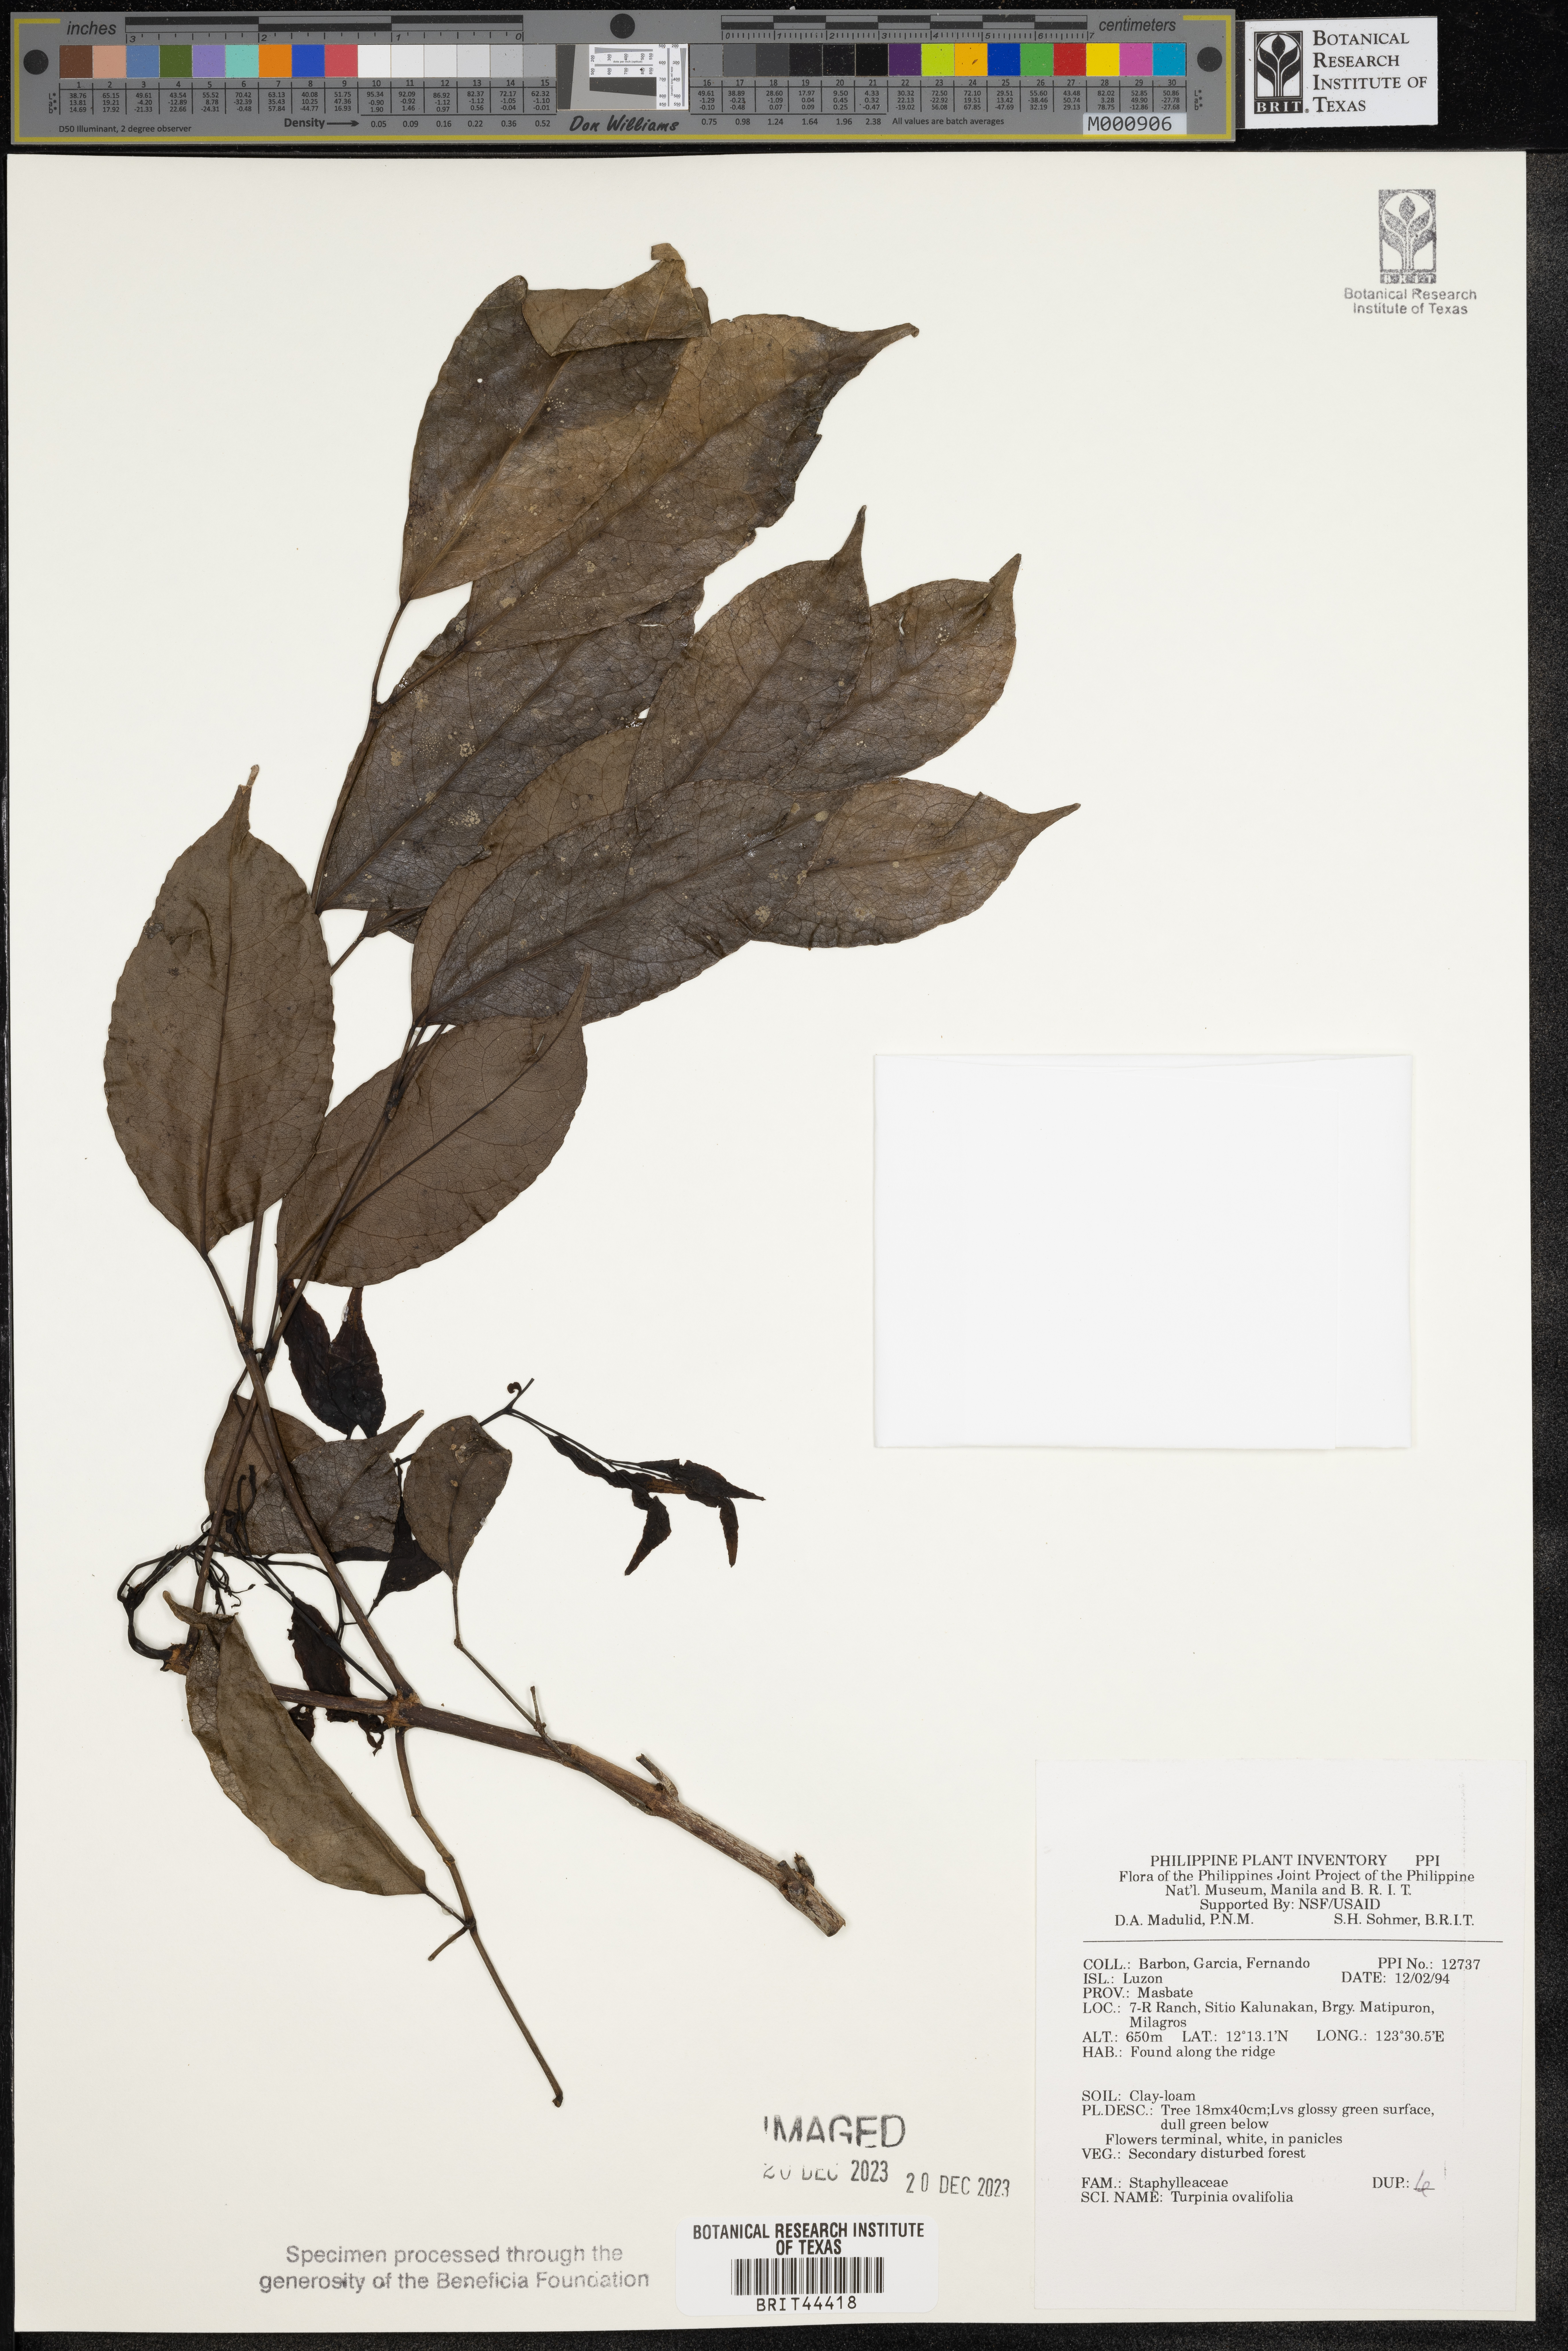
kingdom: Plantae
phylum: Tracheophyta
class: Magnoliopsida
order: Crossosomatales
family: Staphyleaceae
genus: Dalrympelea
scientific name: Dalrympelea trifoliata
